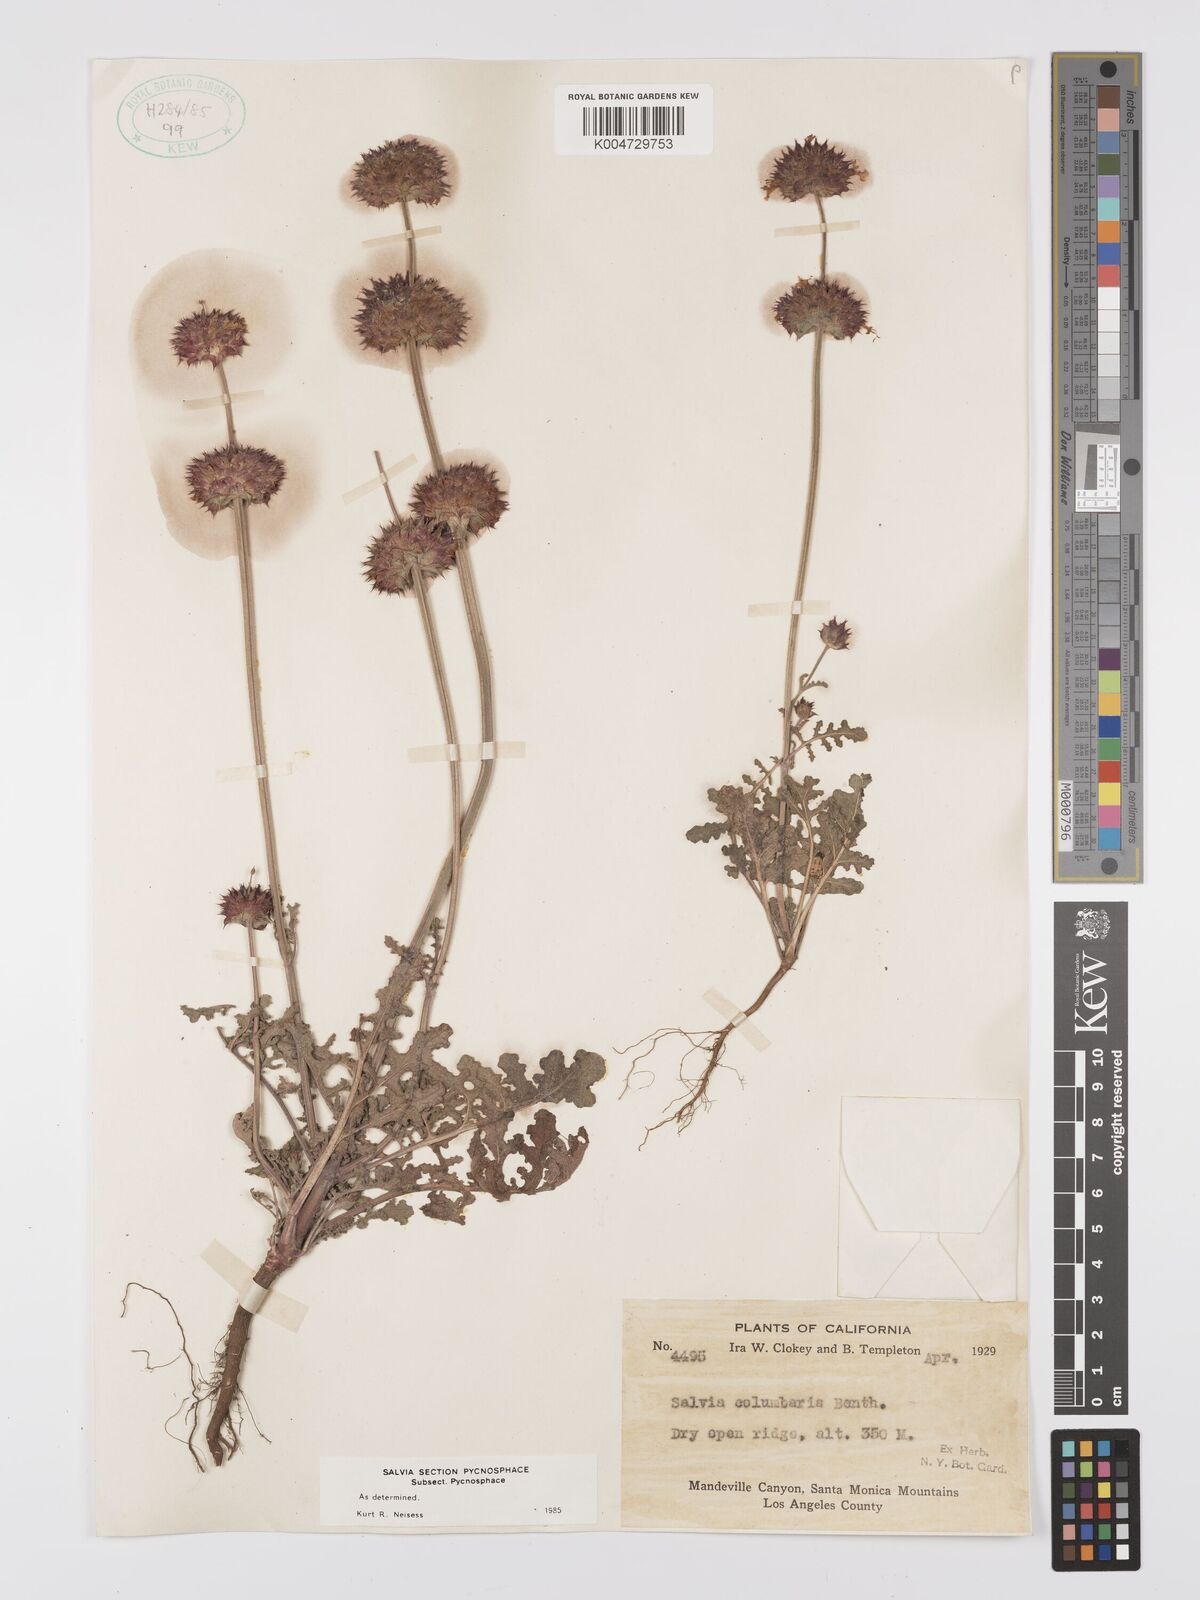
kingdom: Plantae
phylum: Tracheophyta
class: Magnoliopsida
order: Lamiales
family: Lamiaceae
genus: Salvia
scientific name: Salvia columbariae
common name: Chia
